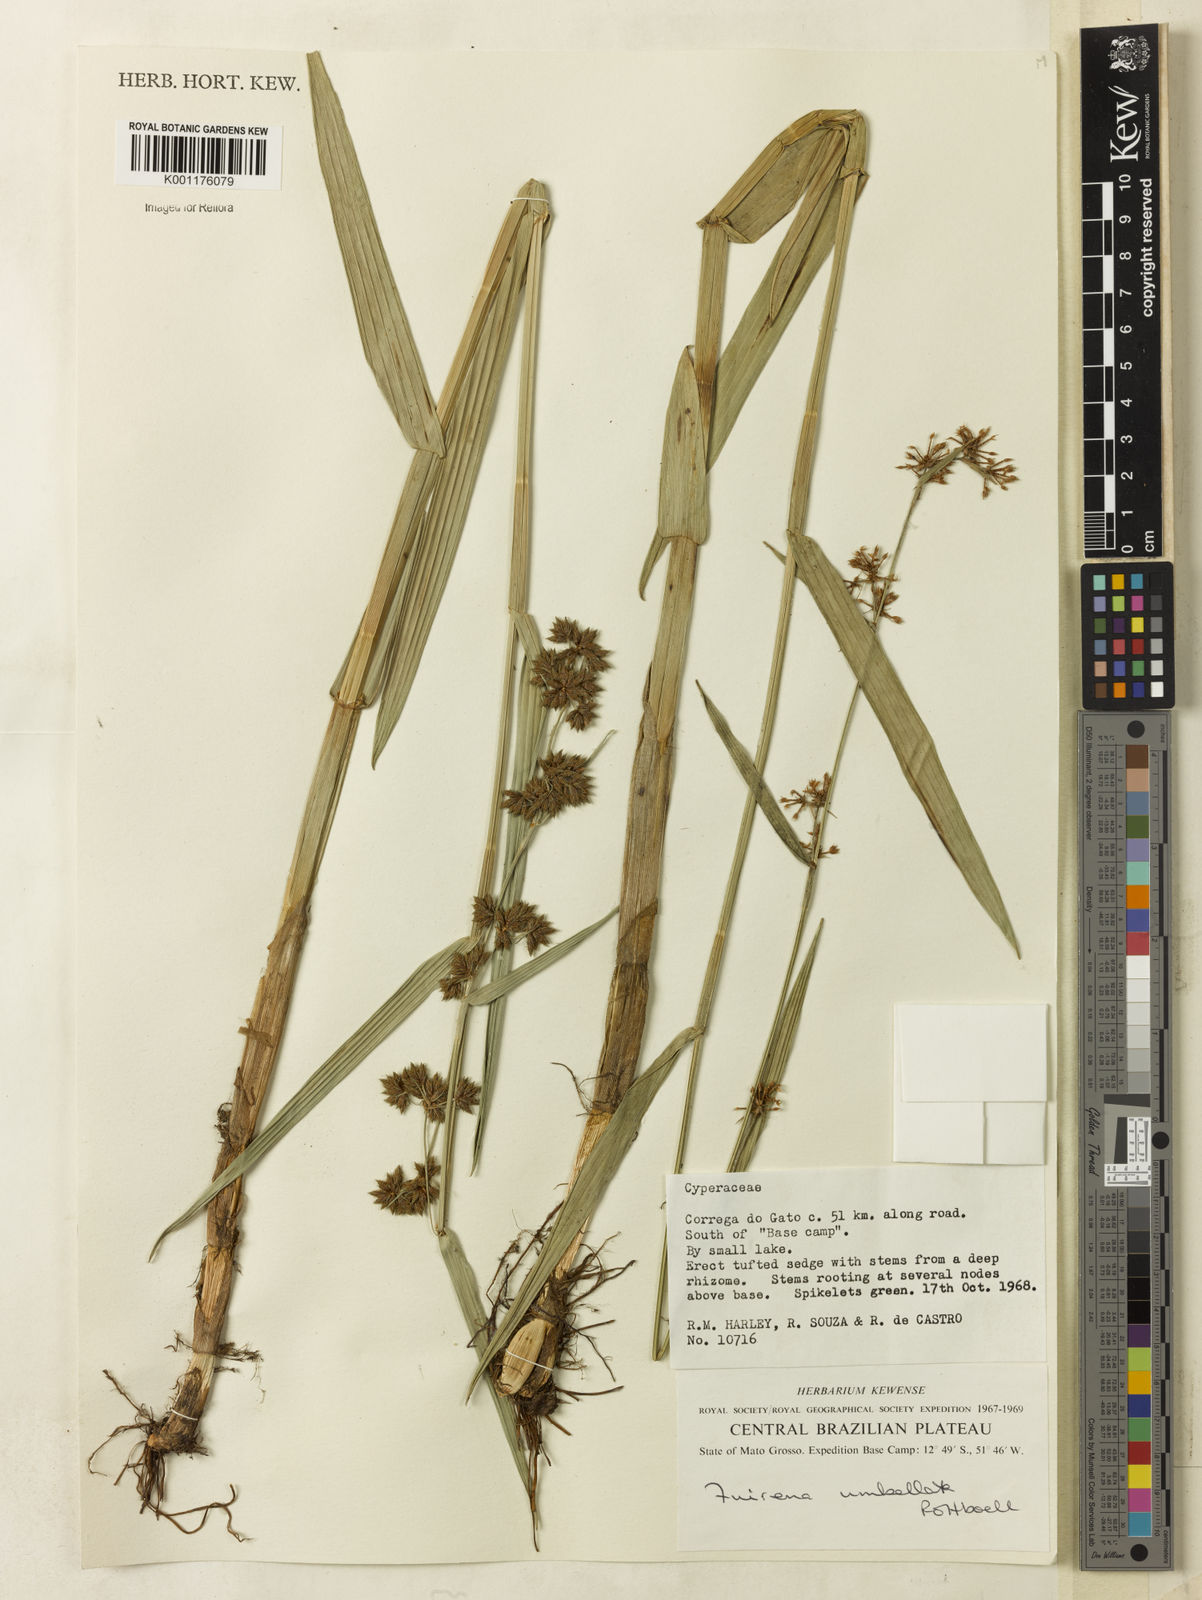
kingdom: Plantae
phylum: Tracheophyta
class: Liliopsida
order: Poales
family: Cyperaceae
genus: Fuirena
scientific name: Fuirena umbellata
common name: Yefen
